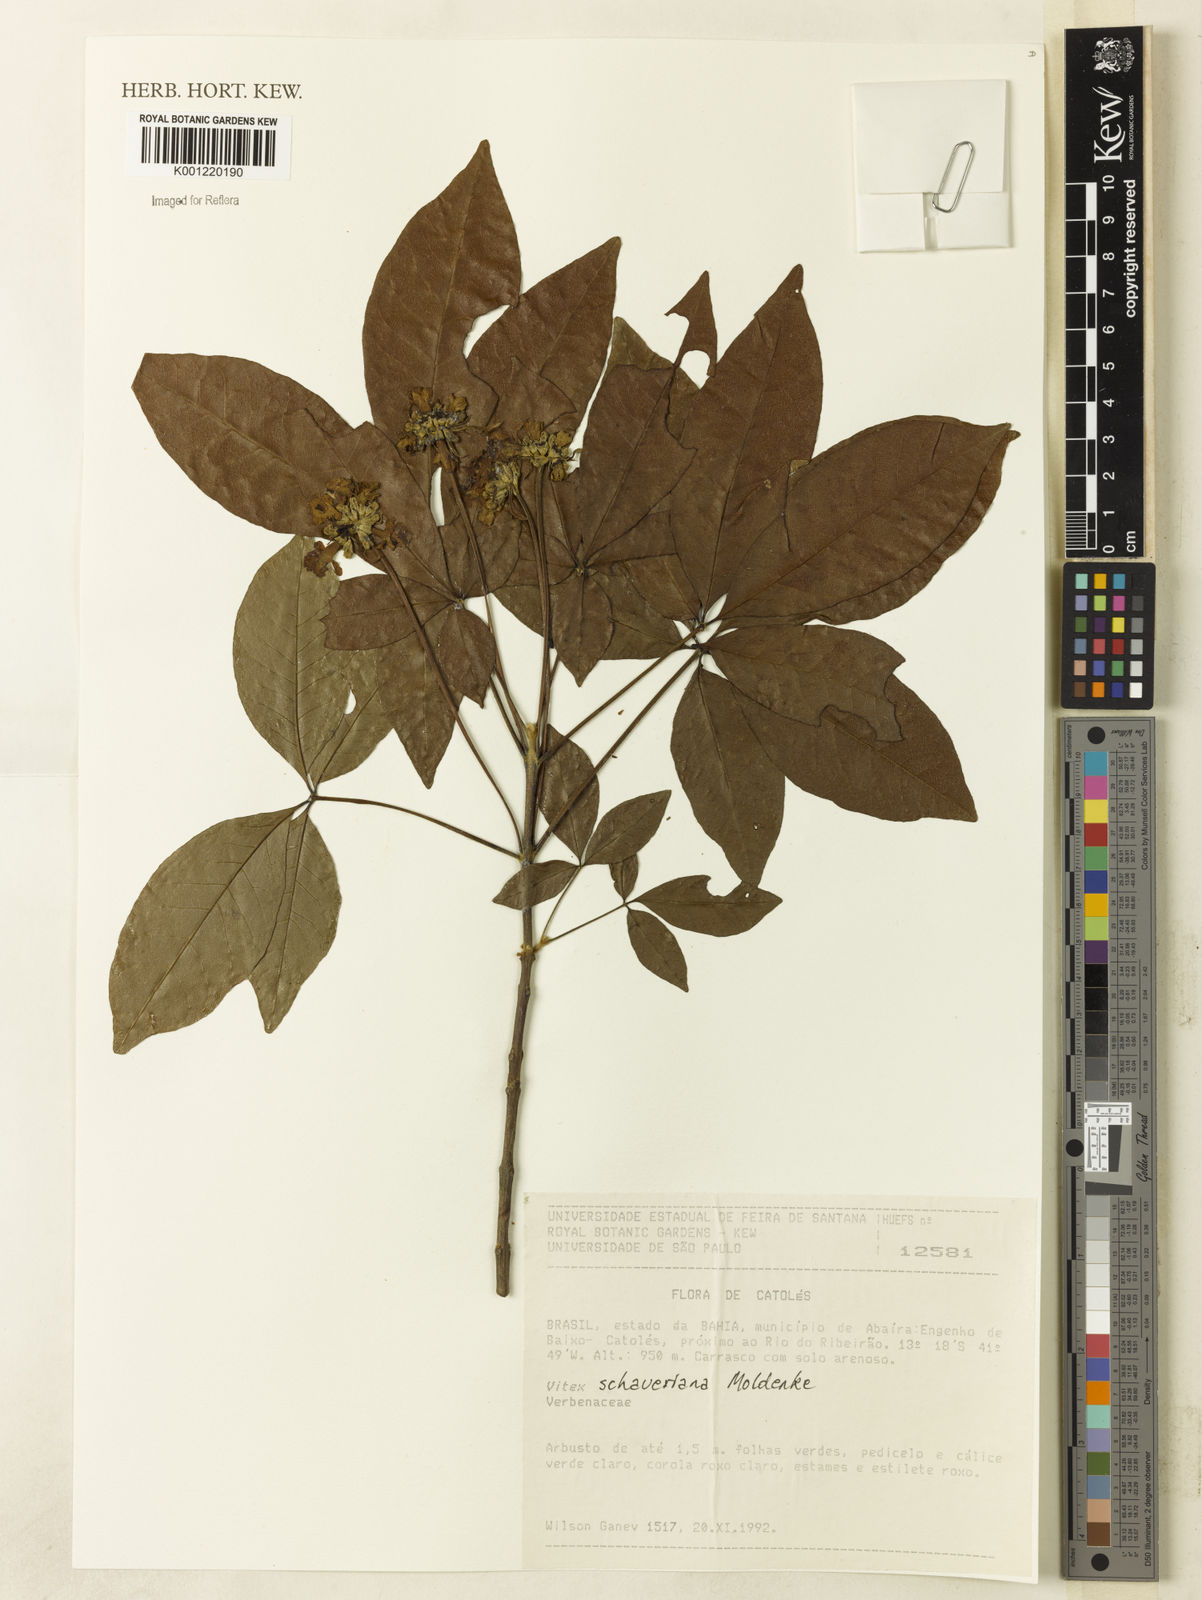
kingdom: Plantae
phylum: Tracheophyta
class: Magnoliopsida
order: Lamiales
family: Lamiaceae
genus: Vitex
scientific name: Vitex schaueriana
